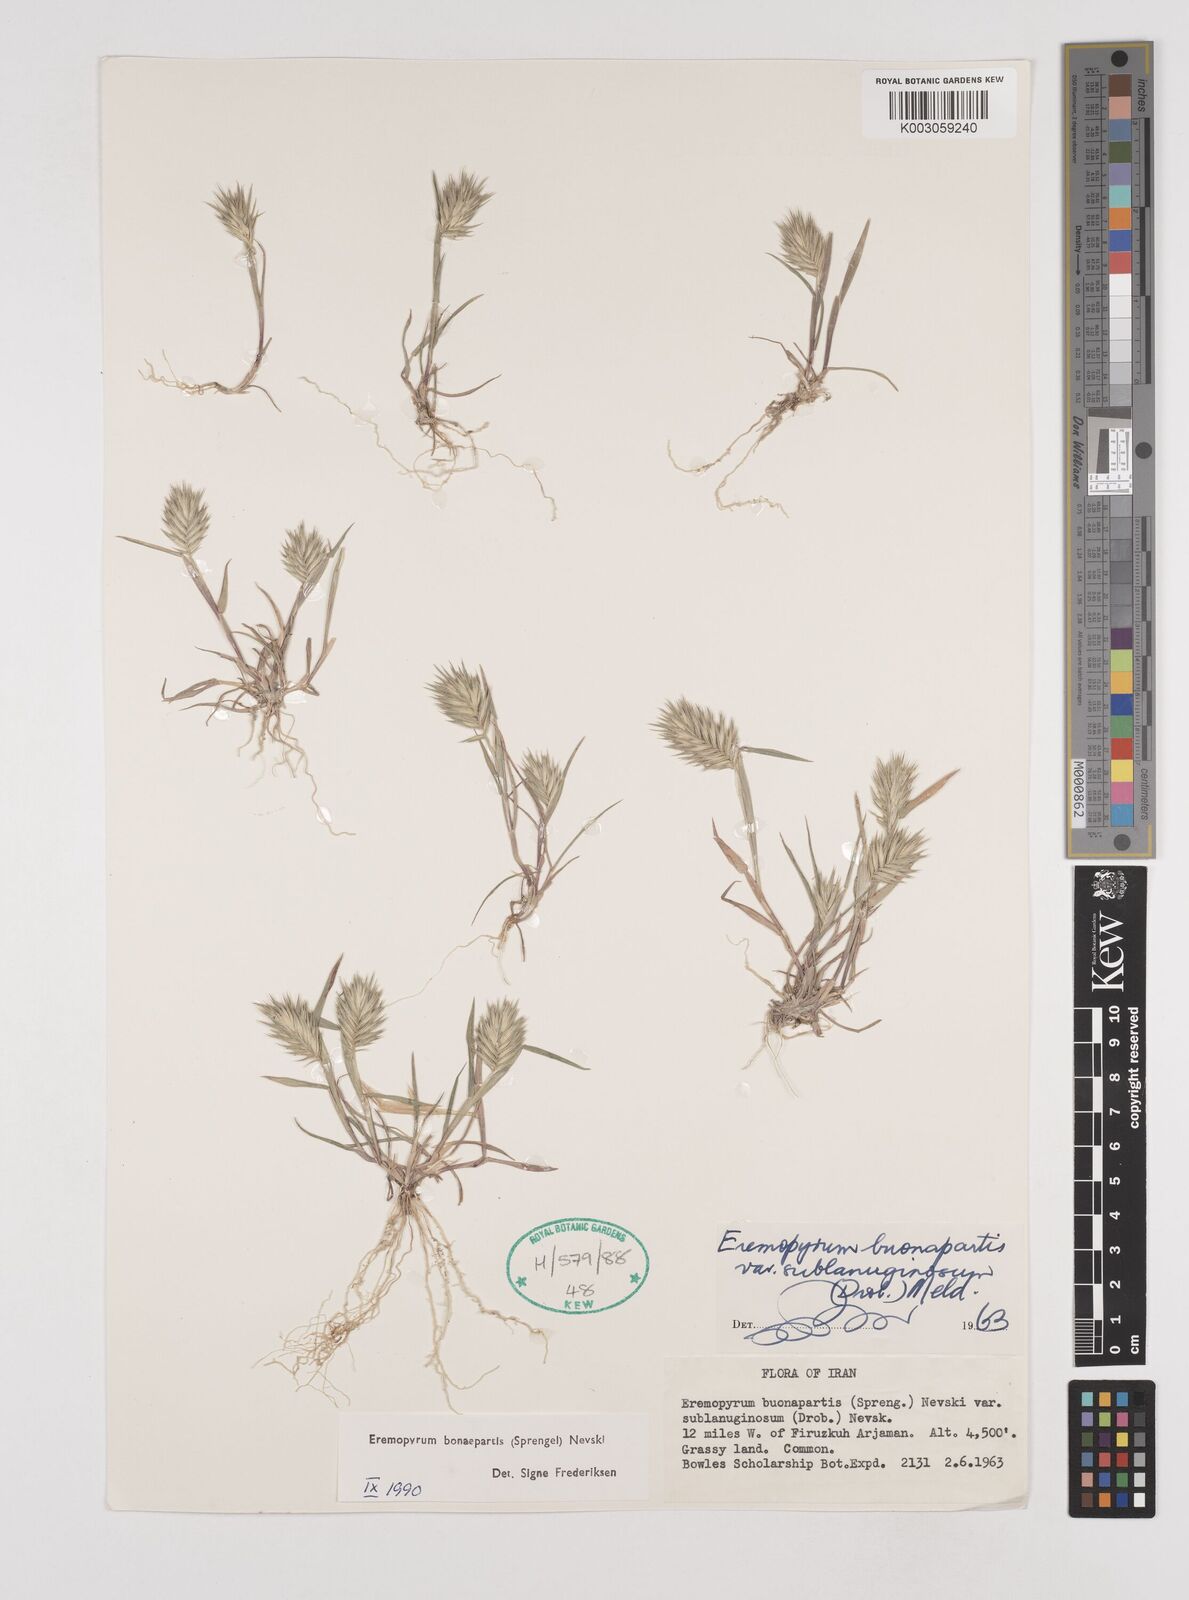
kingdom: Plantae
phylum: Tracheophyta
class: Liliopsida
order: Poales
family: Poaceae
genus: Eremopyrum
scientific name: Eremopyrum bonaepartis
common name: Tapertip false wheatgrass
